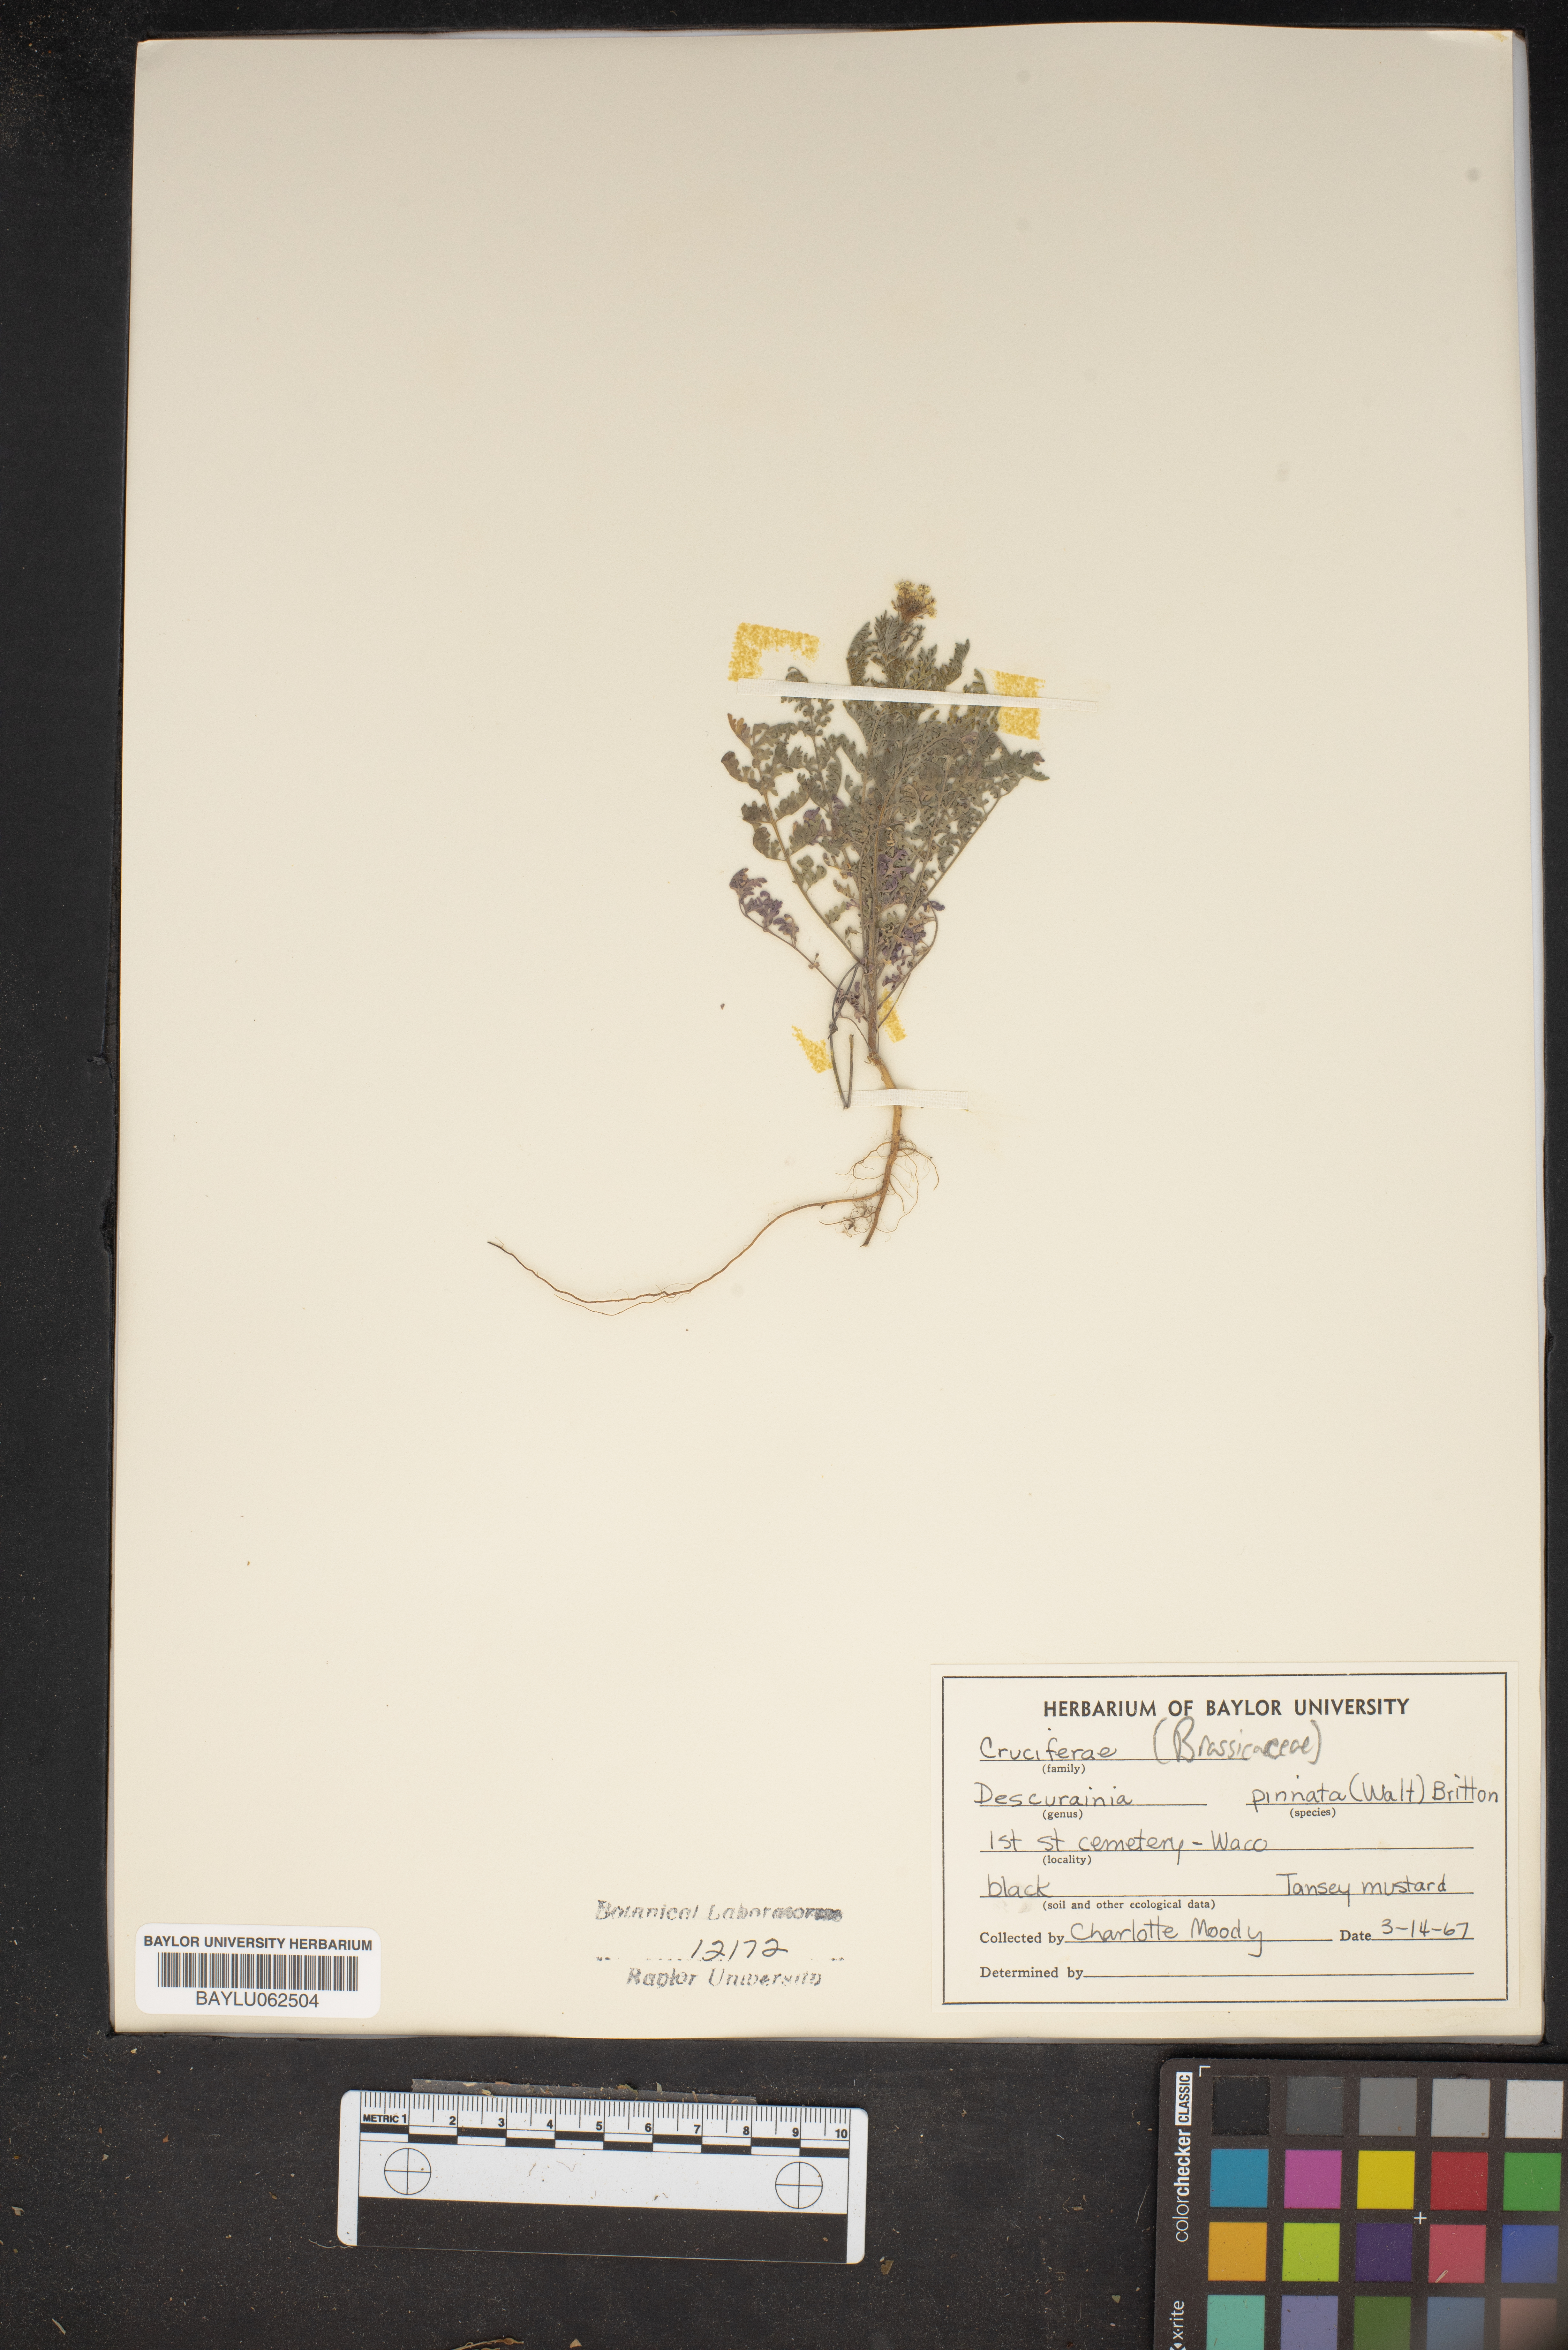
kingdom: Plantae
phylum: Tracheophyta
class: Magnoliopsida
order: Brassicales
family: Brassicaceae
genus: Descurainia
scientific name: Descurainia pinnata
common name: Western tansy mustard
